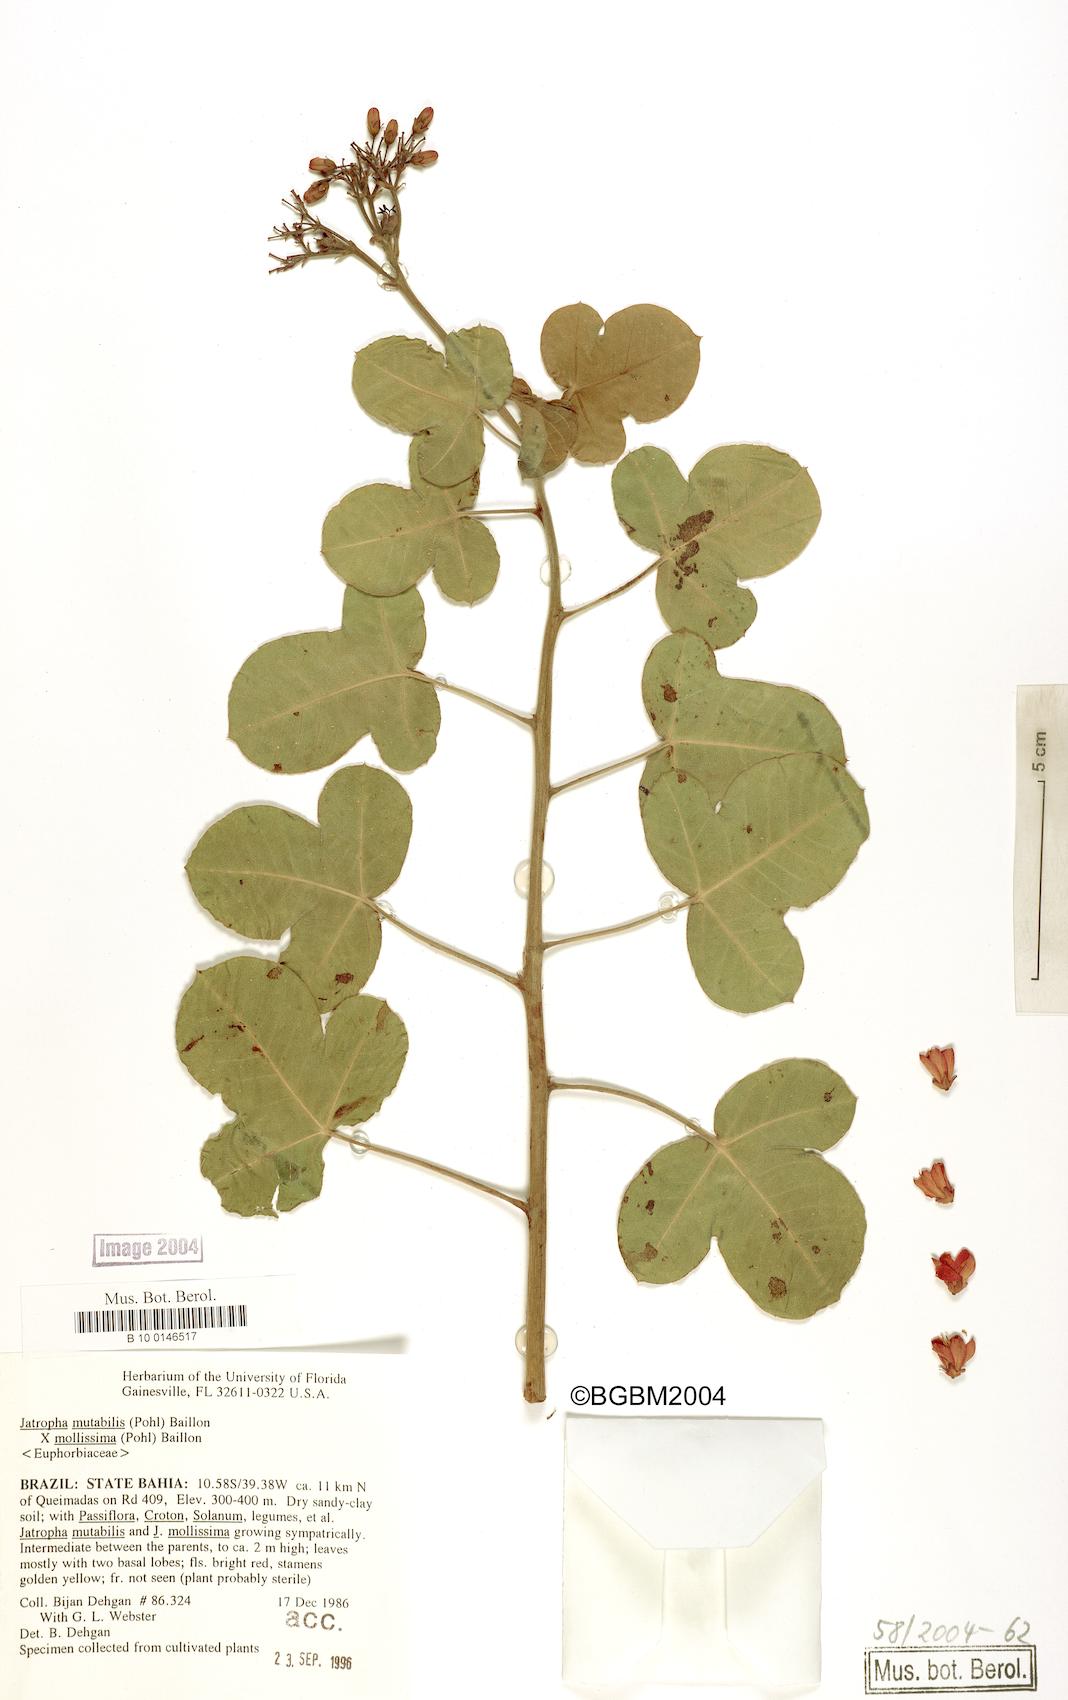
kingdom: Plantae
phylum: Tracheophyta
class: Magnoliopsida
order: Malpighiales
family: Euphorbiaceae
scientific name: Euphorbiaceae
